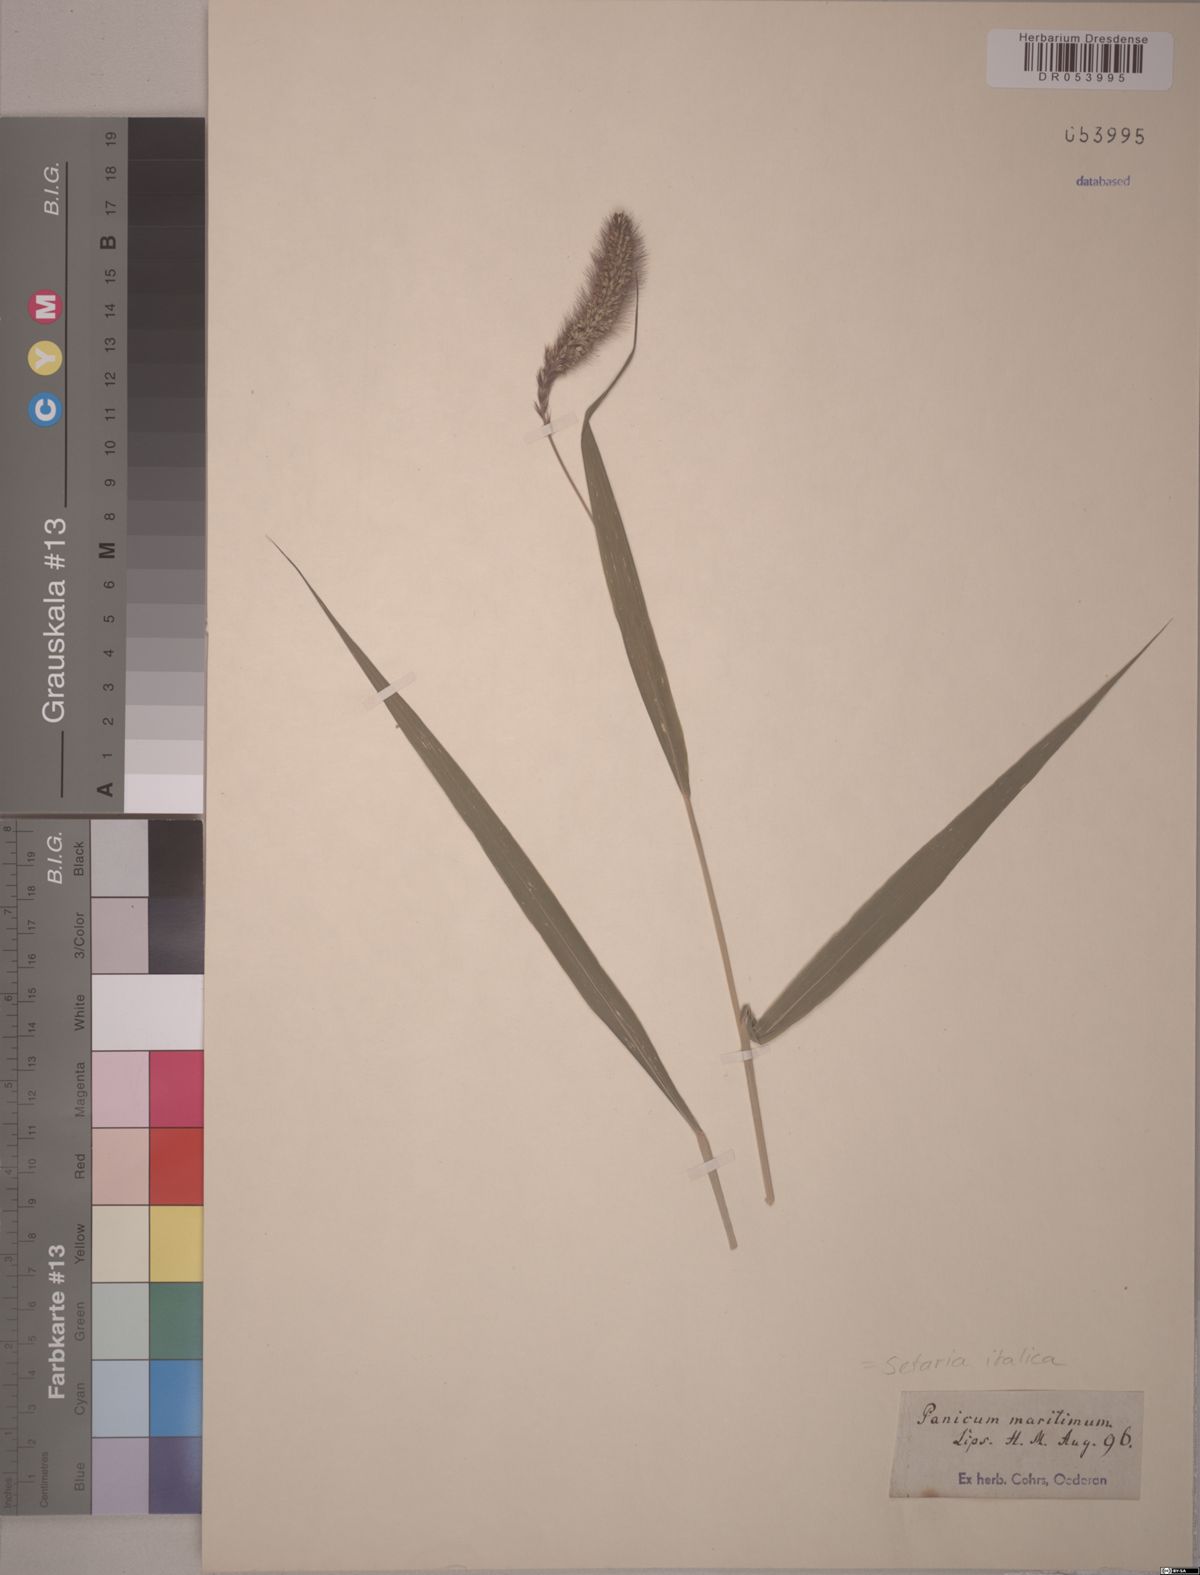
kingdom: Plantae
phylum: Tracheophyta
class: Liliopsida
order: Poales
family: Poaceae
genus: Setaria
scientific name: Setaria italica
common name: Foxtail bristle-grass
